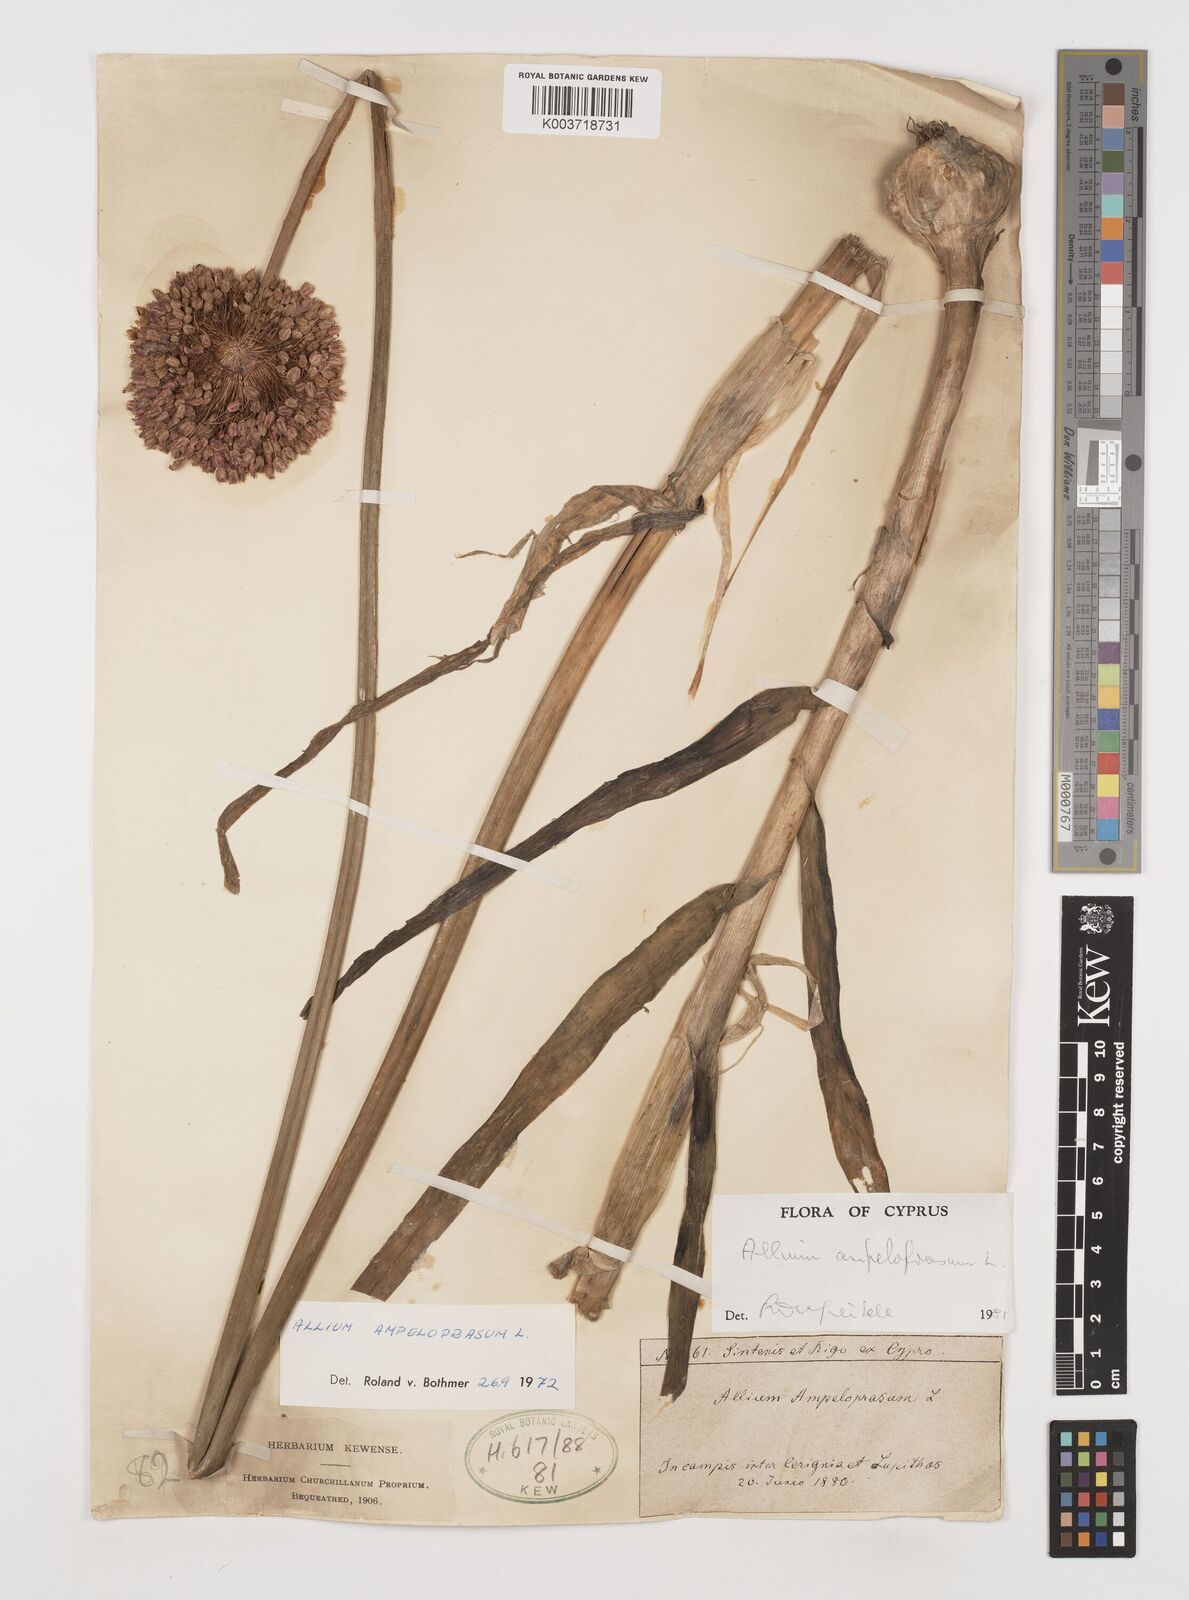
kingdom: Plantae
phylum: Tracheophyta
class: Liliopsida
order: Asparagales
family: Amaryllidaceae
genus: Allium
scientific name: Allium ampeloprasum
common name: Wild leek
